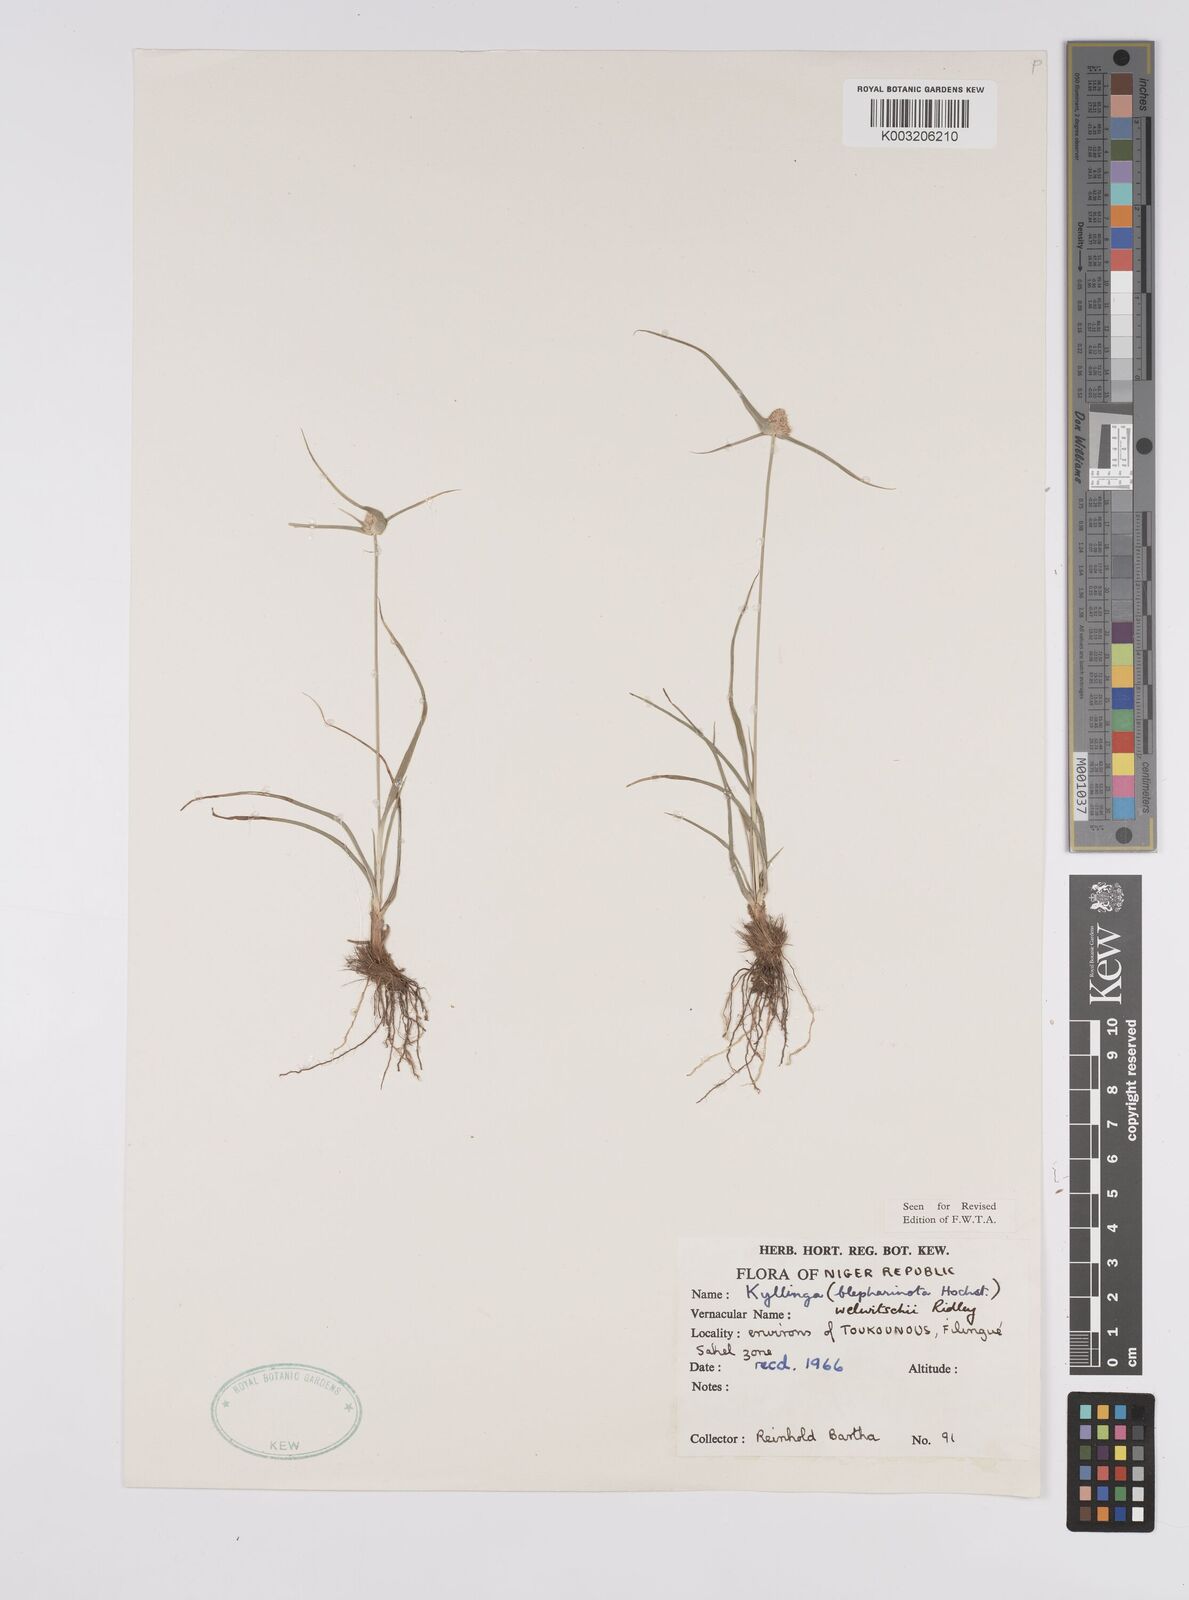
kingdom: Plantae
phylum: Tracheophyta
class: Liliopsida
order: Poales
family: Cyperaceae
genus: Cyperus
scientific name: Cyperus
